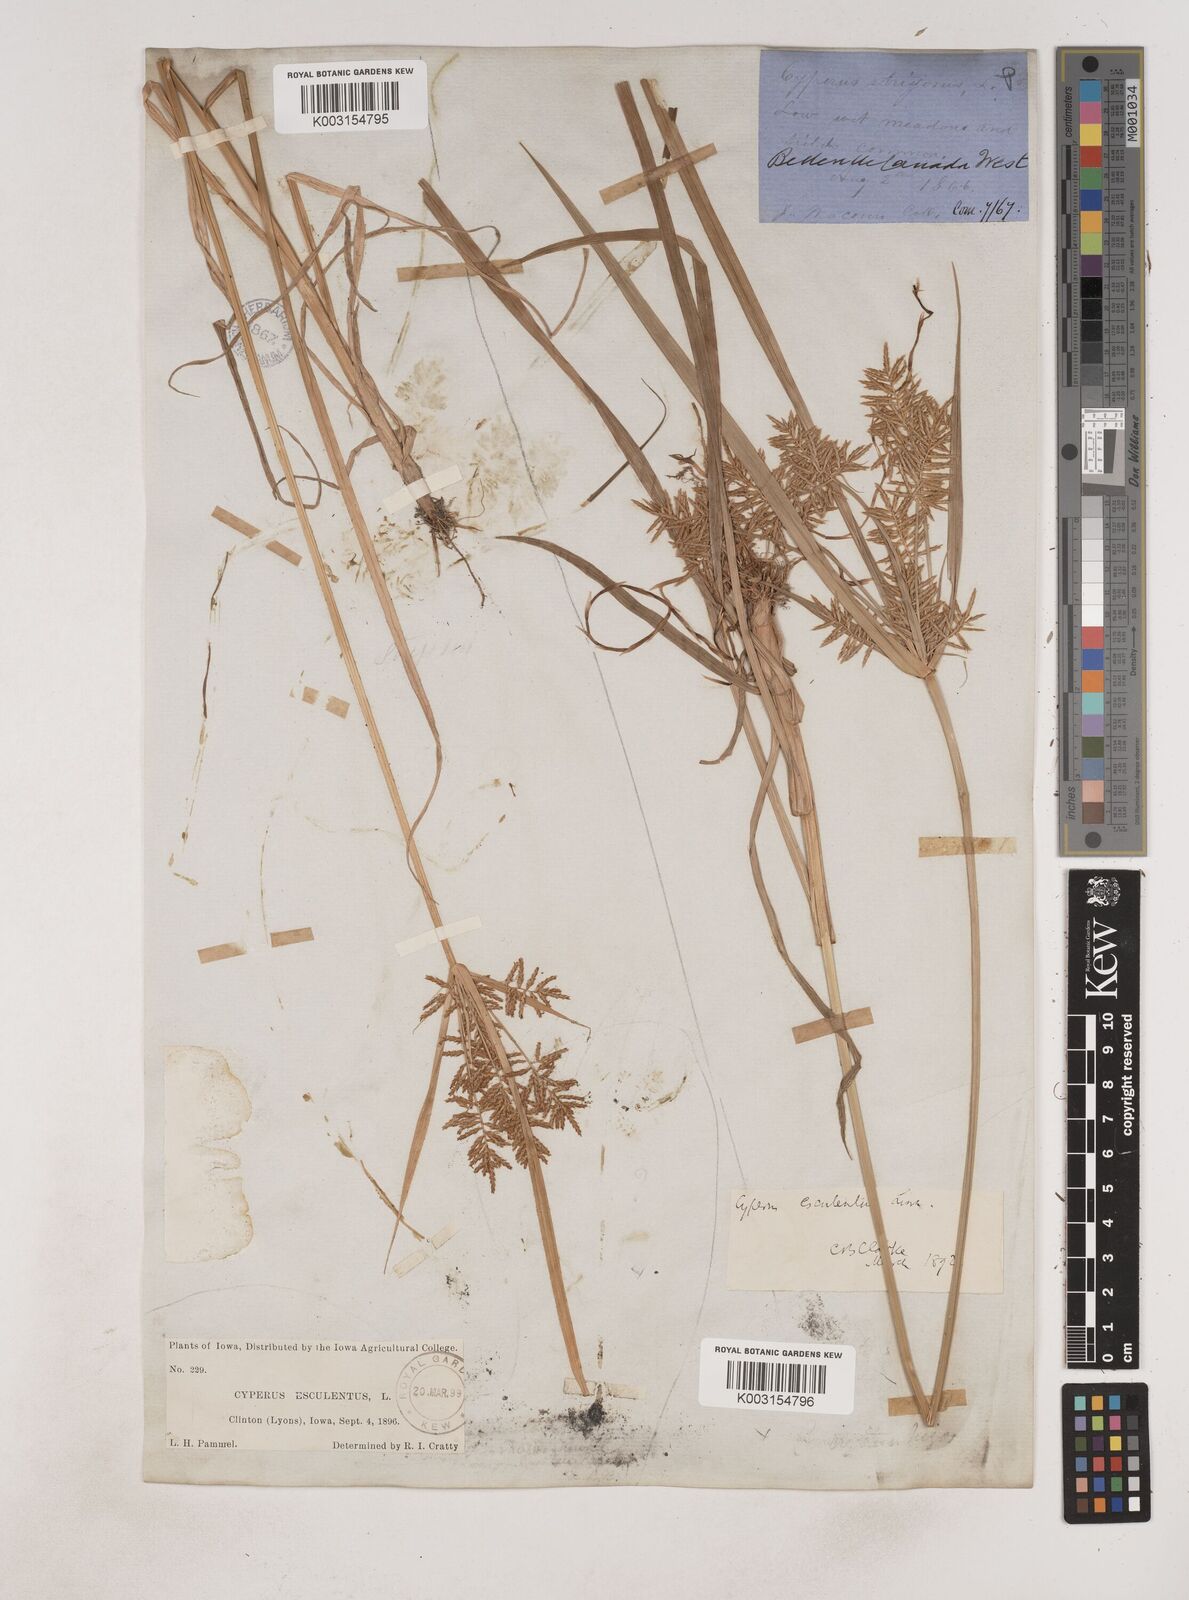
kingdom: Plantae
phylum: Tracheophyta
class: Liliopsida
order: Poales
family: Cyperaceae
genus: Cyperus
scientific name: Cyperus esculentus
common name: Yellow nutsedge
